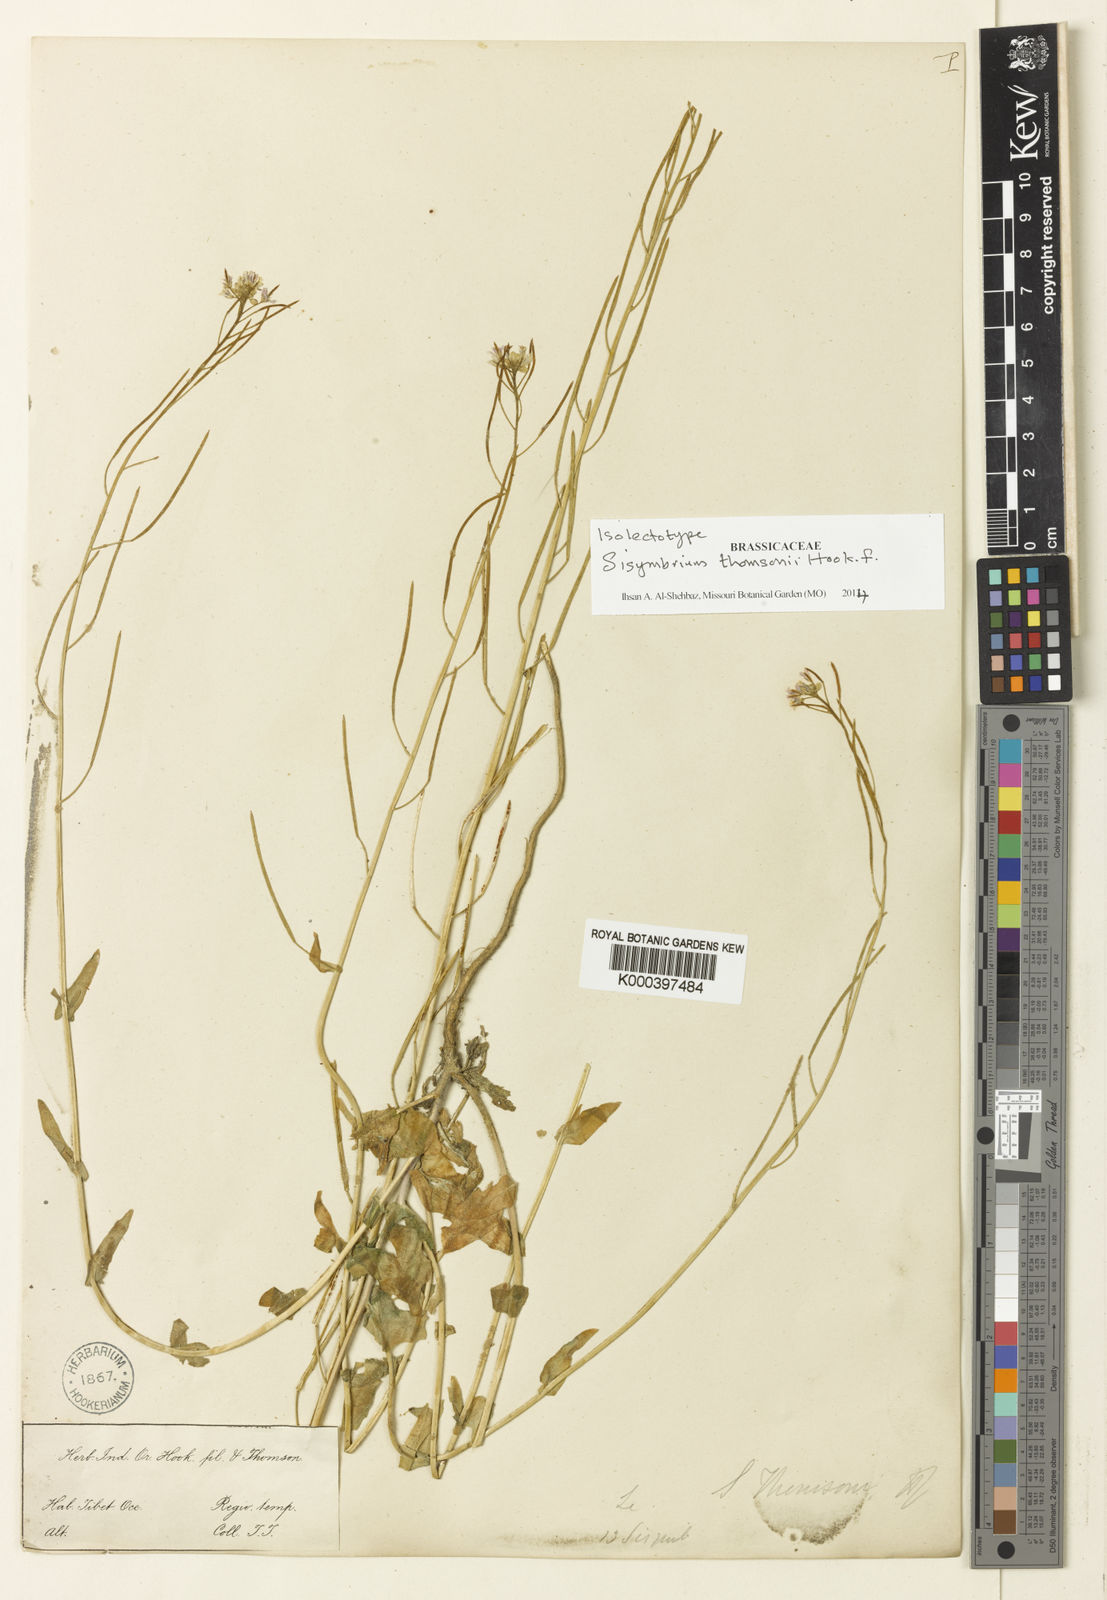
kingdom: Plantae
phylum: Tracheophyta
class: Magnoliopsida
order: Brassicales
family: Brassicaceae
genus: Crucihimalaya
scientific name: Crucihimalaya mollissima
